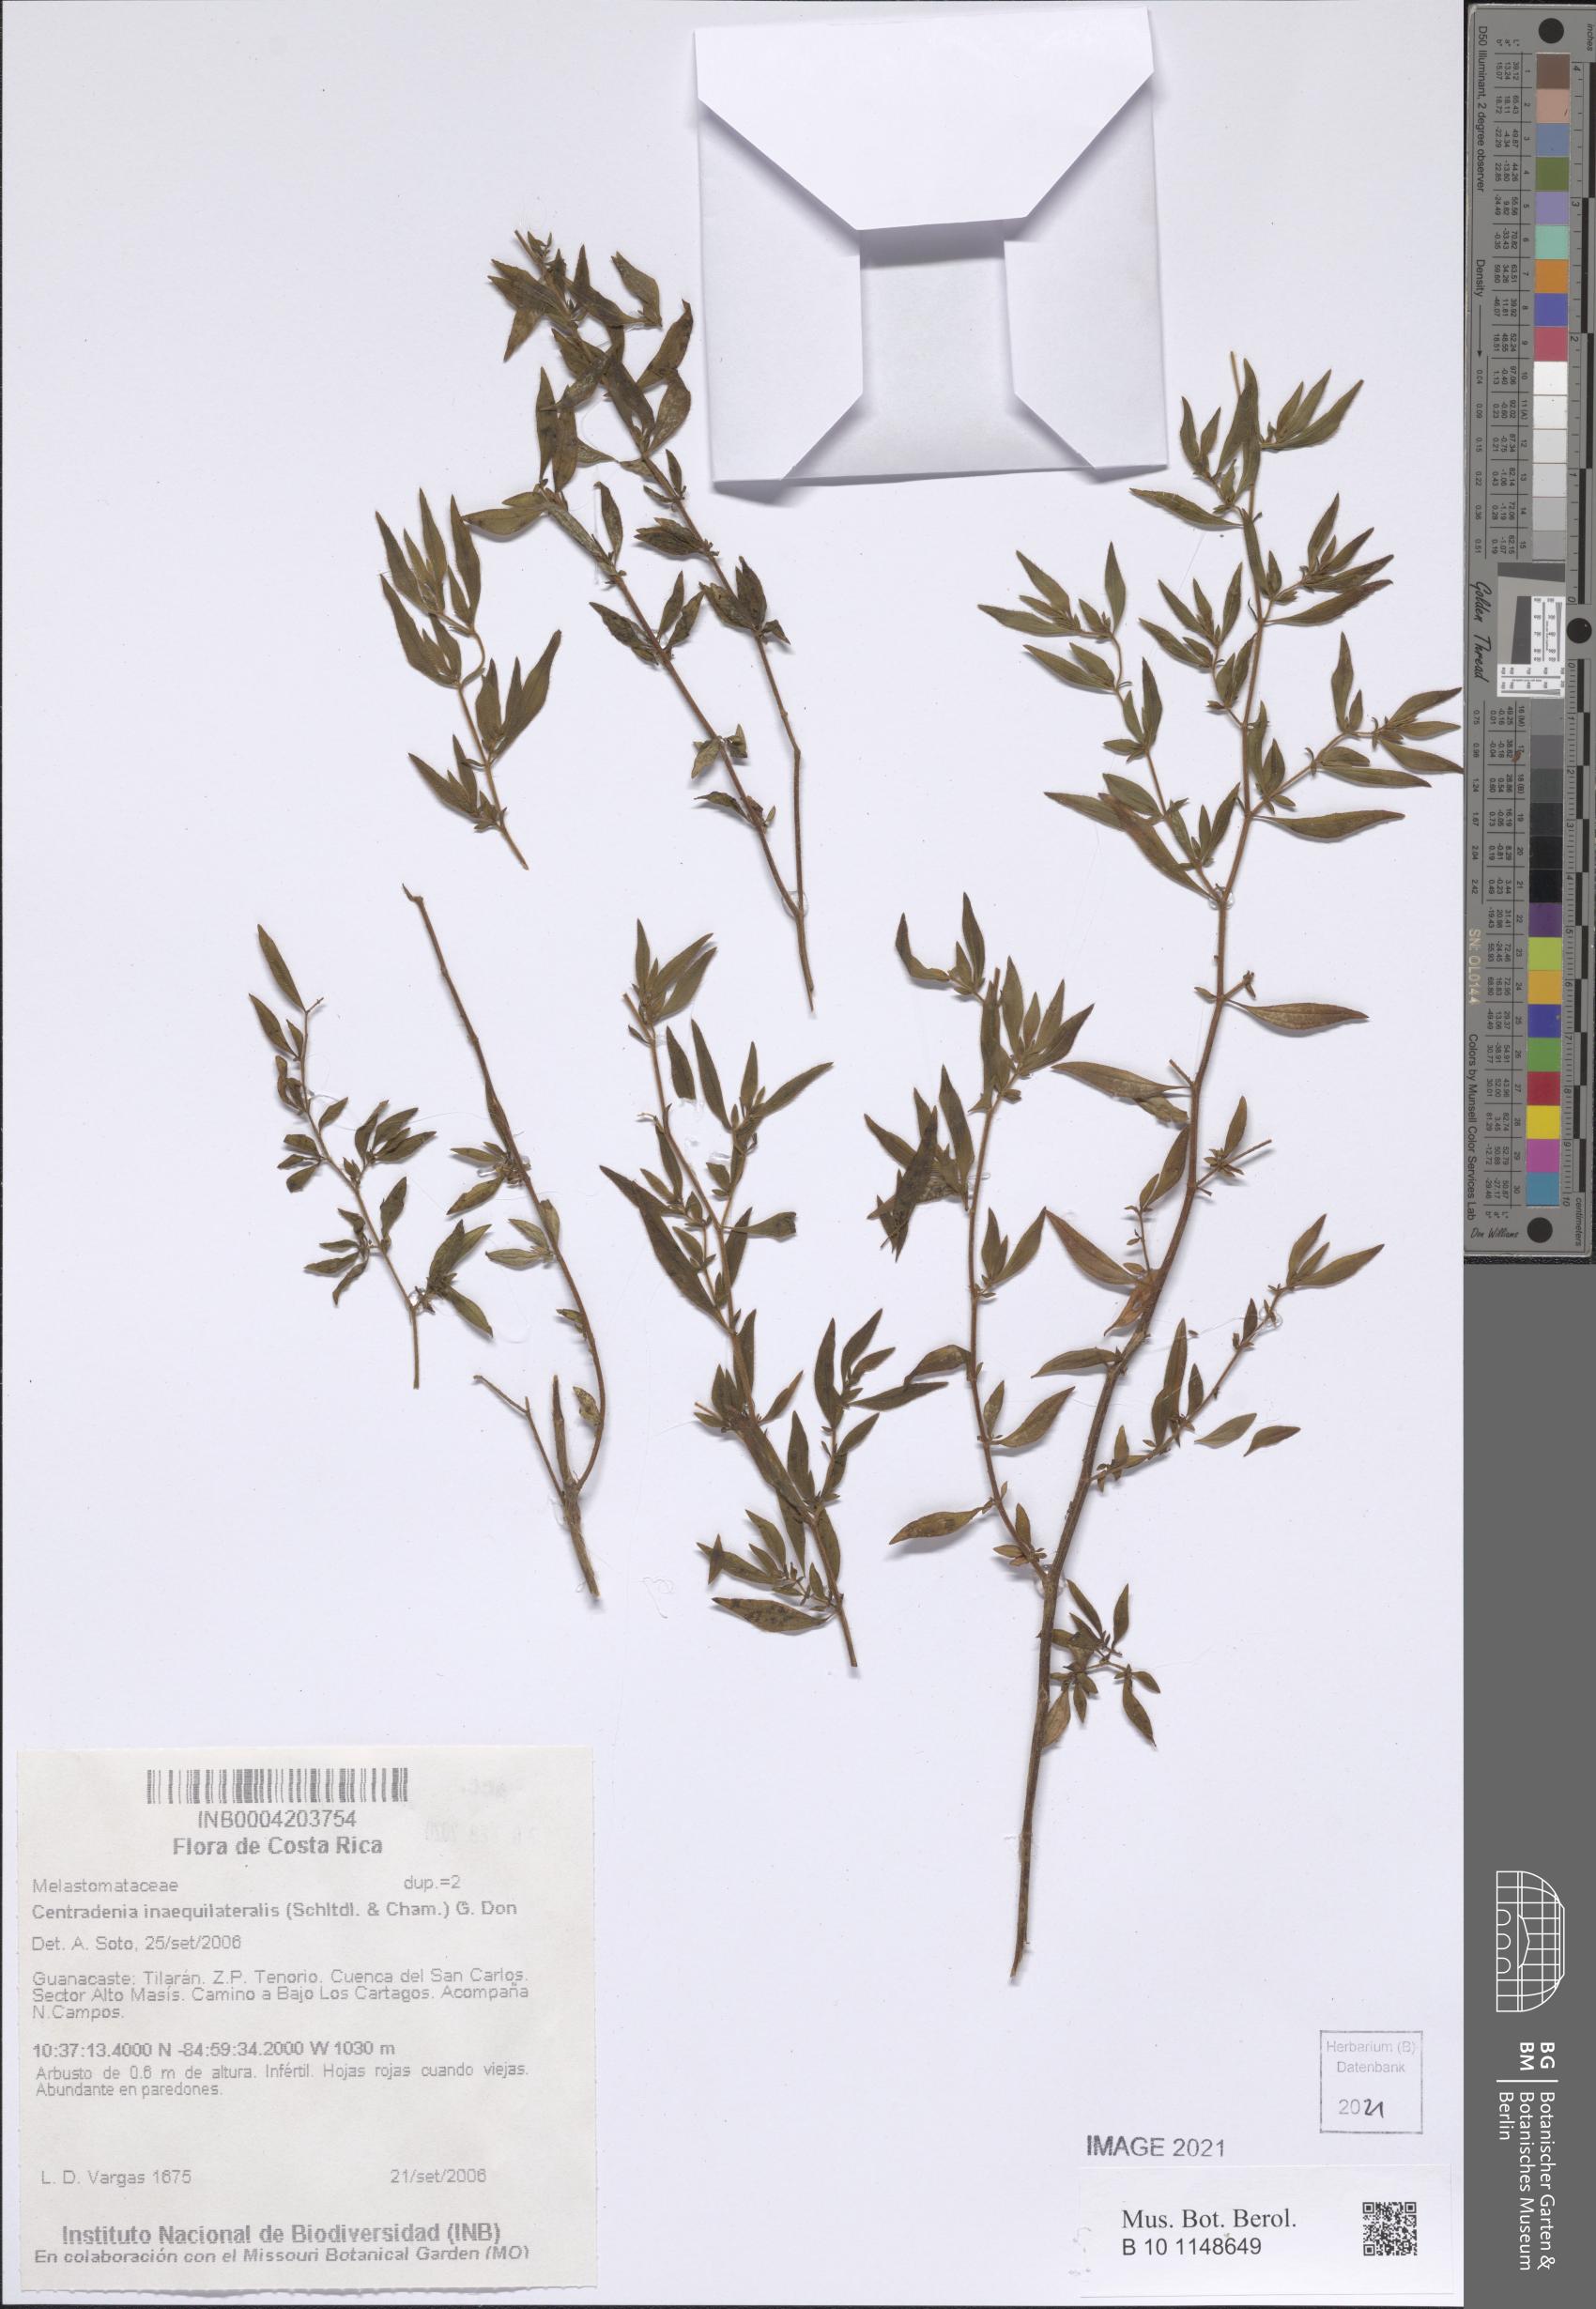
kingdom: Plantae
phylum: Tracheophyta
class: Magnoliopsida
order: Myrtales
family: Melastomataceae
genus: Centradenia
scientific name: Centradenia inaequilateralis
